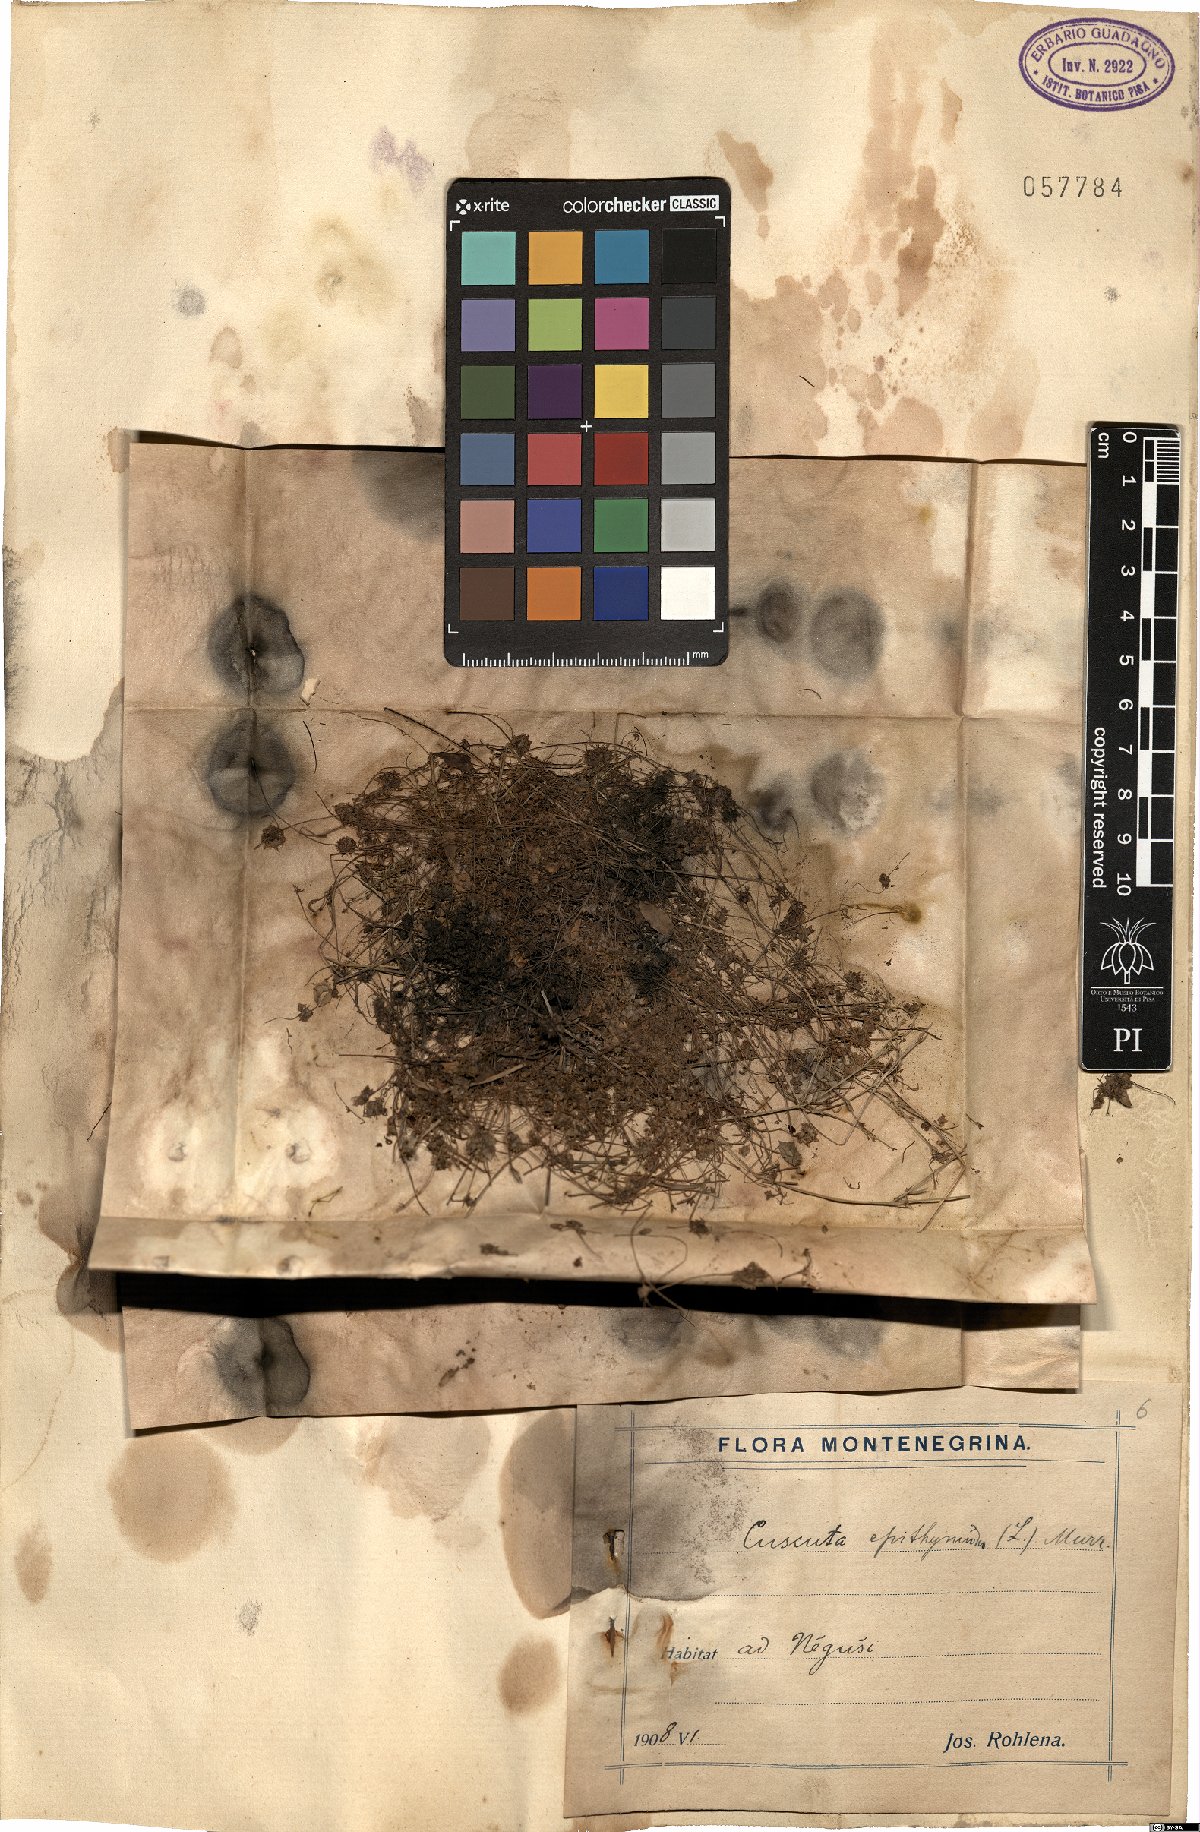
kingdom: Plantae
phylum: Tracheophyta
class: Magnoliopsida
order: Solanales
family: Convolvulaceae
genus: Cuscuta
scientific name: Cuscuta epithymum
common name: Clover dodder
